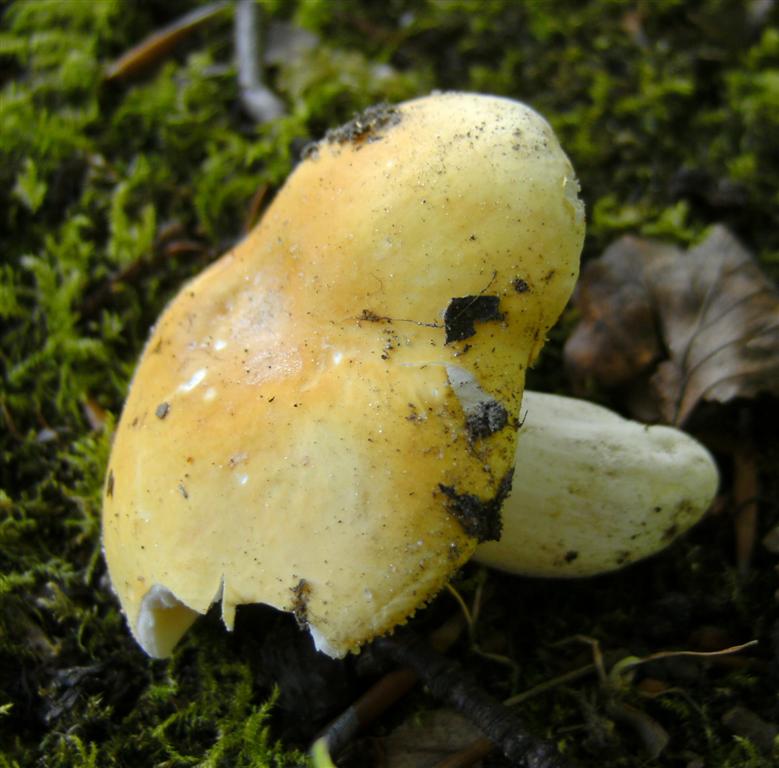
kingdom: Fungi
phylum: Basidiomycota
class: Agaricomycetes
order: Russulales
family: Russulaceae
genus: Russula
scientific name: Russula risigallina
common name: abrikos-skørhat
